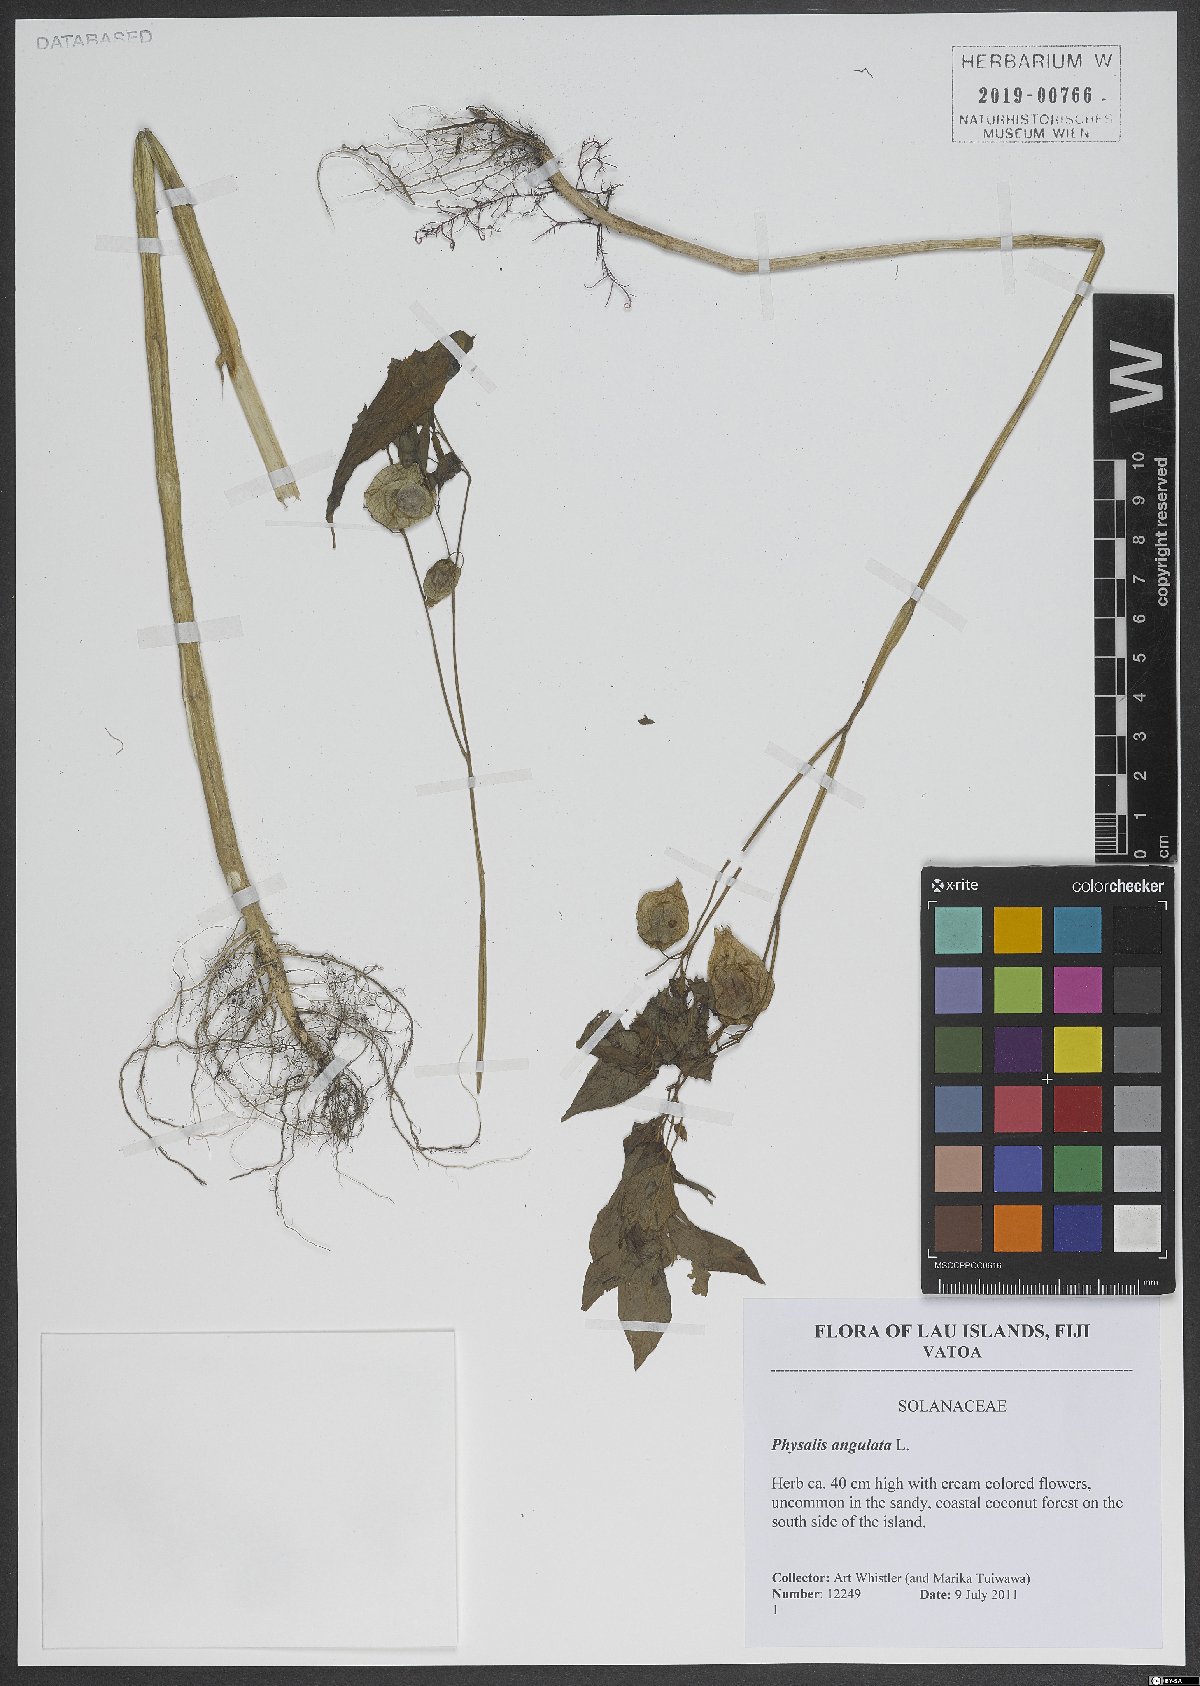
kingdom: Plantae
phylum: Tracheophyta
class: Magnoliopsida
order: Solanales
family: Solanaceae
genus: Physalis
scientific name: Physalis angulata
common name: Angular winter-cherry
